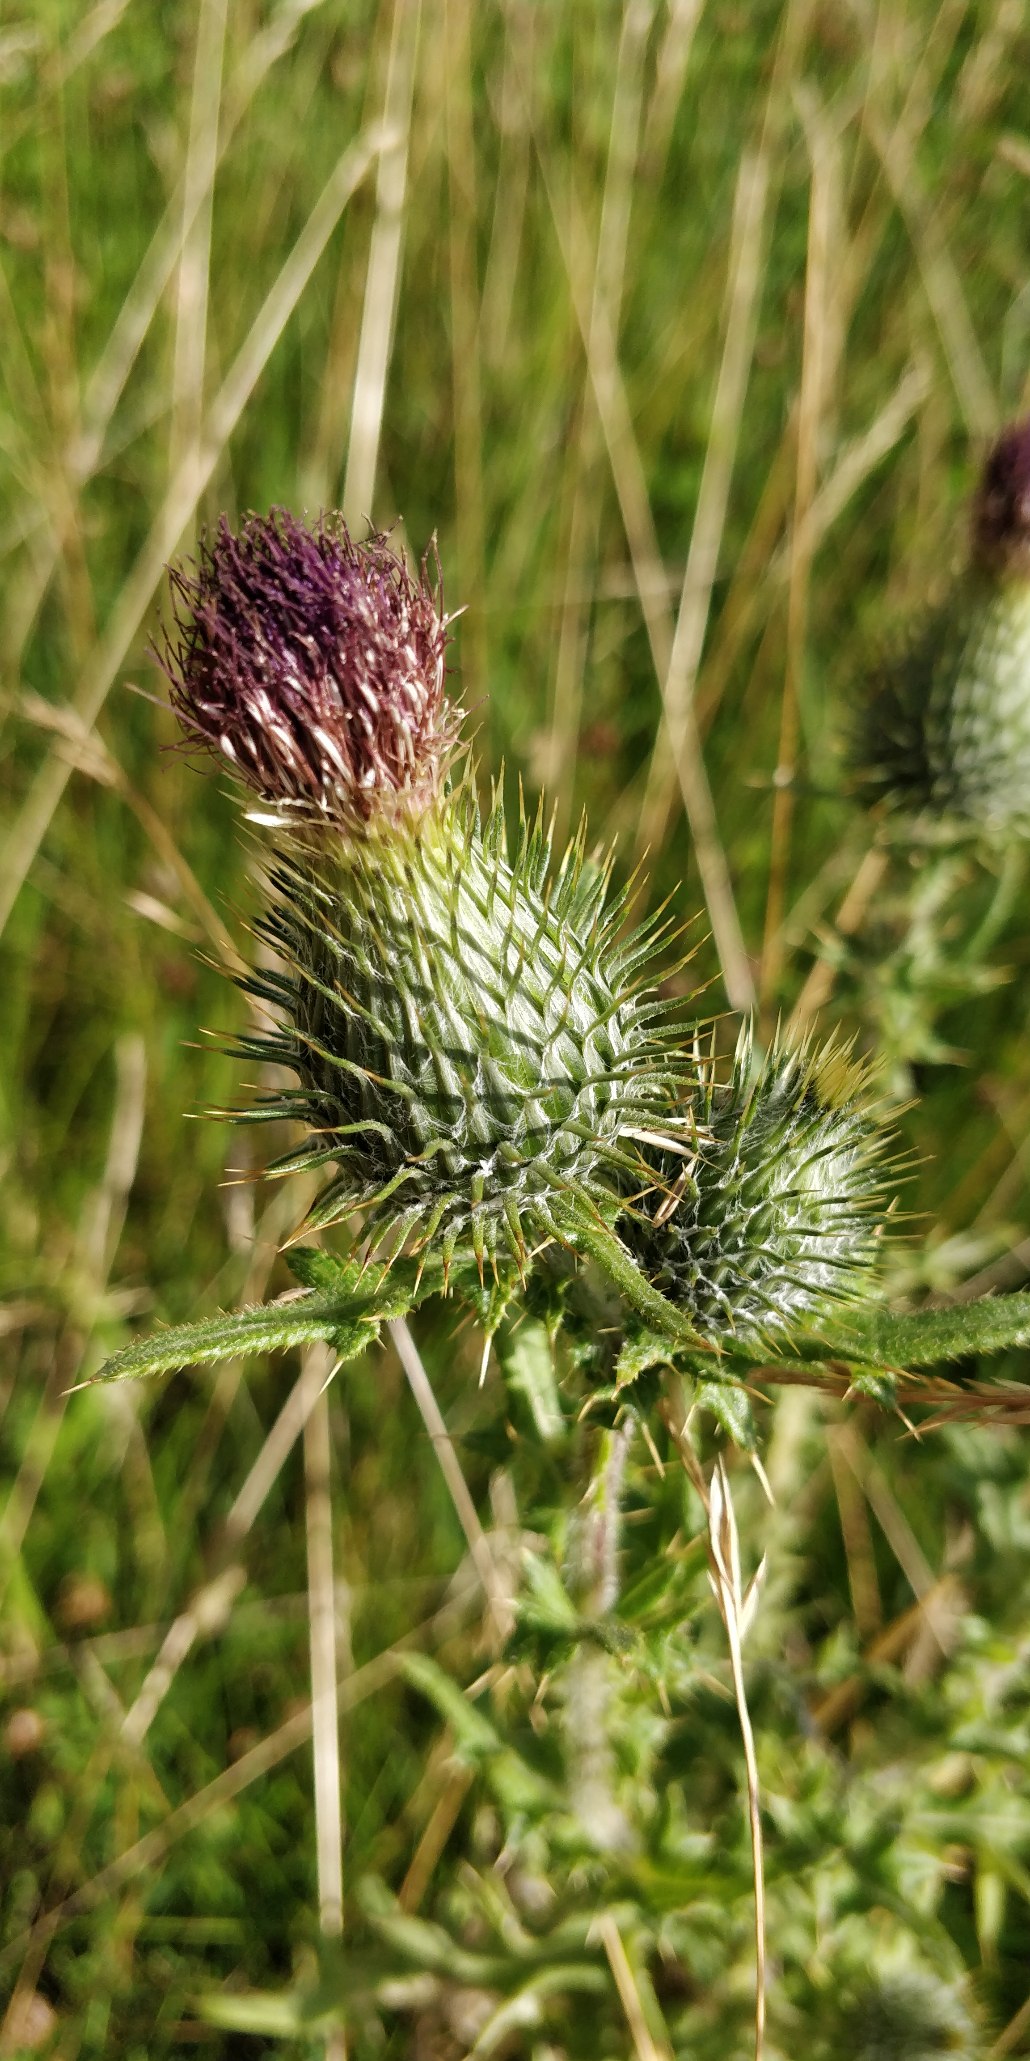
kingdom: Plantae
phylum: Tracheophyta
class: Magnoliopsida
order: Asterales
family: Asteraceae
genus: Cirsium
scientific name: Cirsium vulgare
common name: Horse-tidsel
